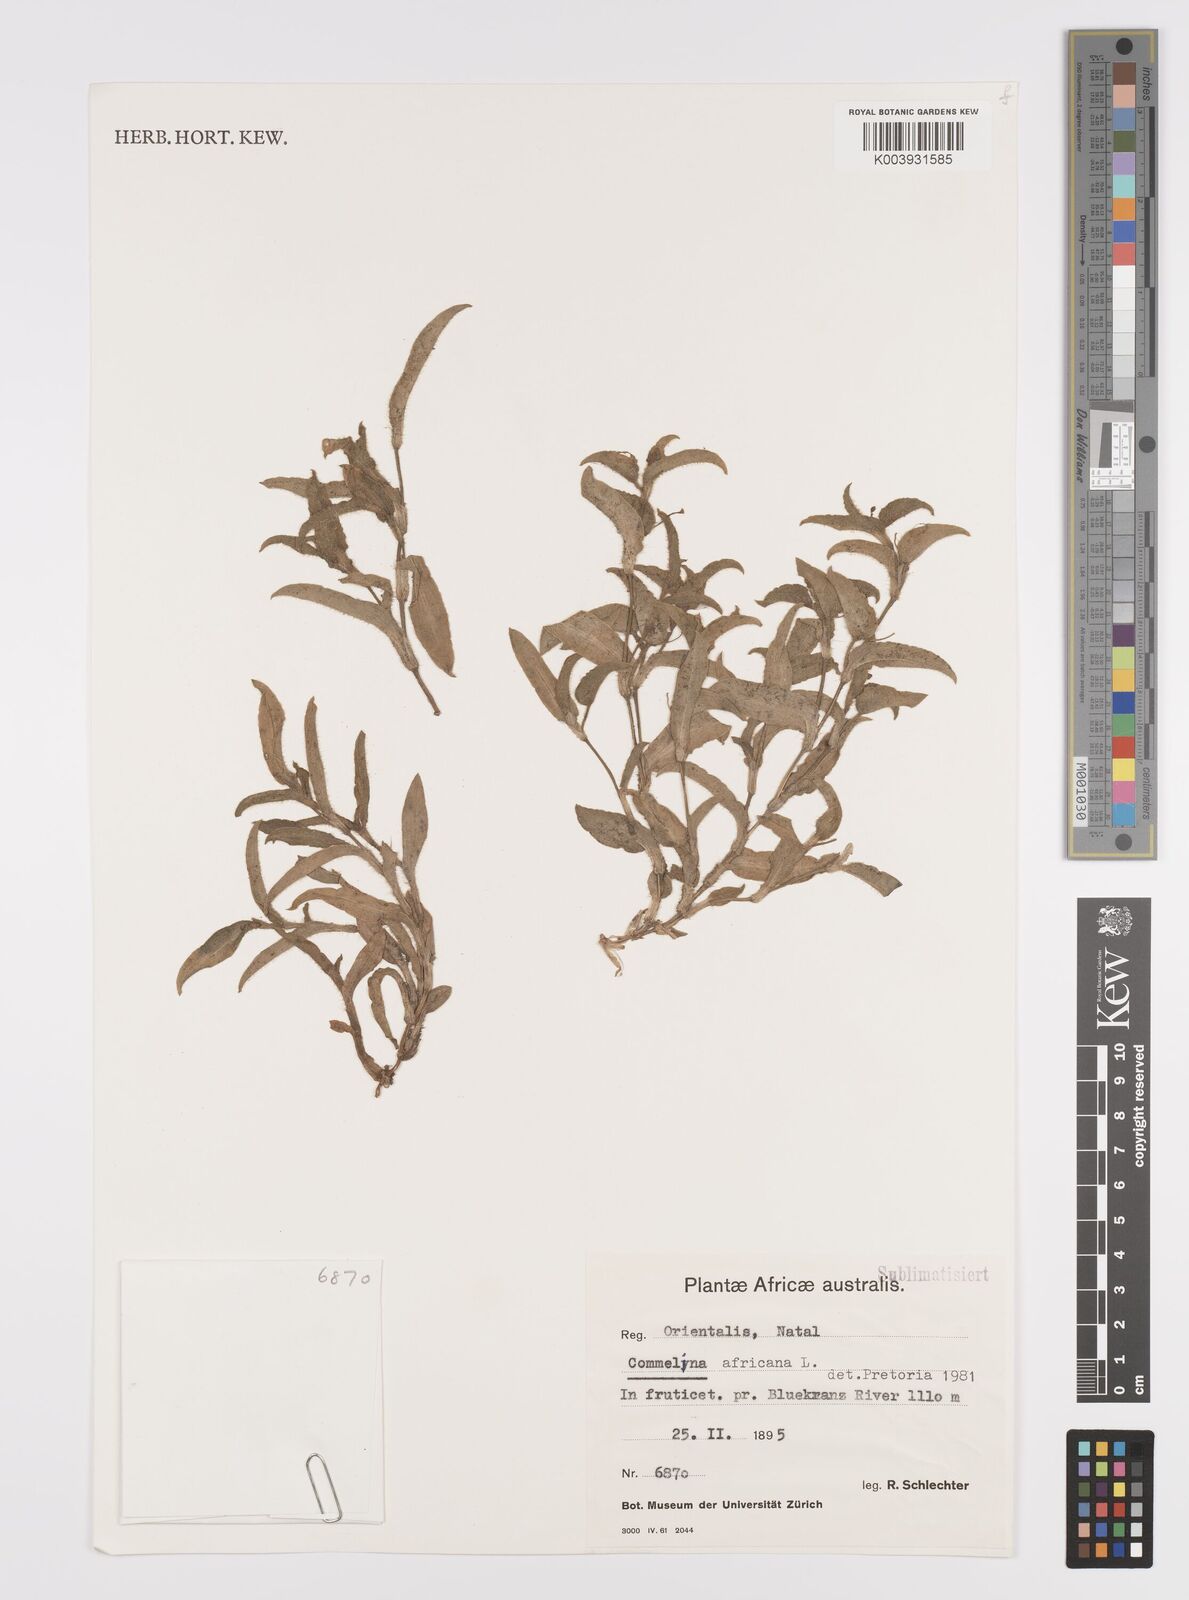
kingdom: Plantae
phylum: Tracheophyta
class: Liliopsida
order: Commelinales
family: Commelinaceae
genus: Commelina
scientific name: Commelina africana
